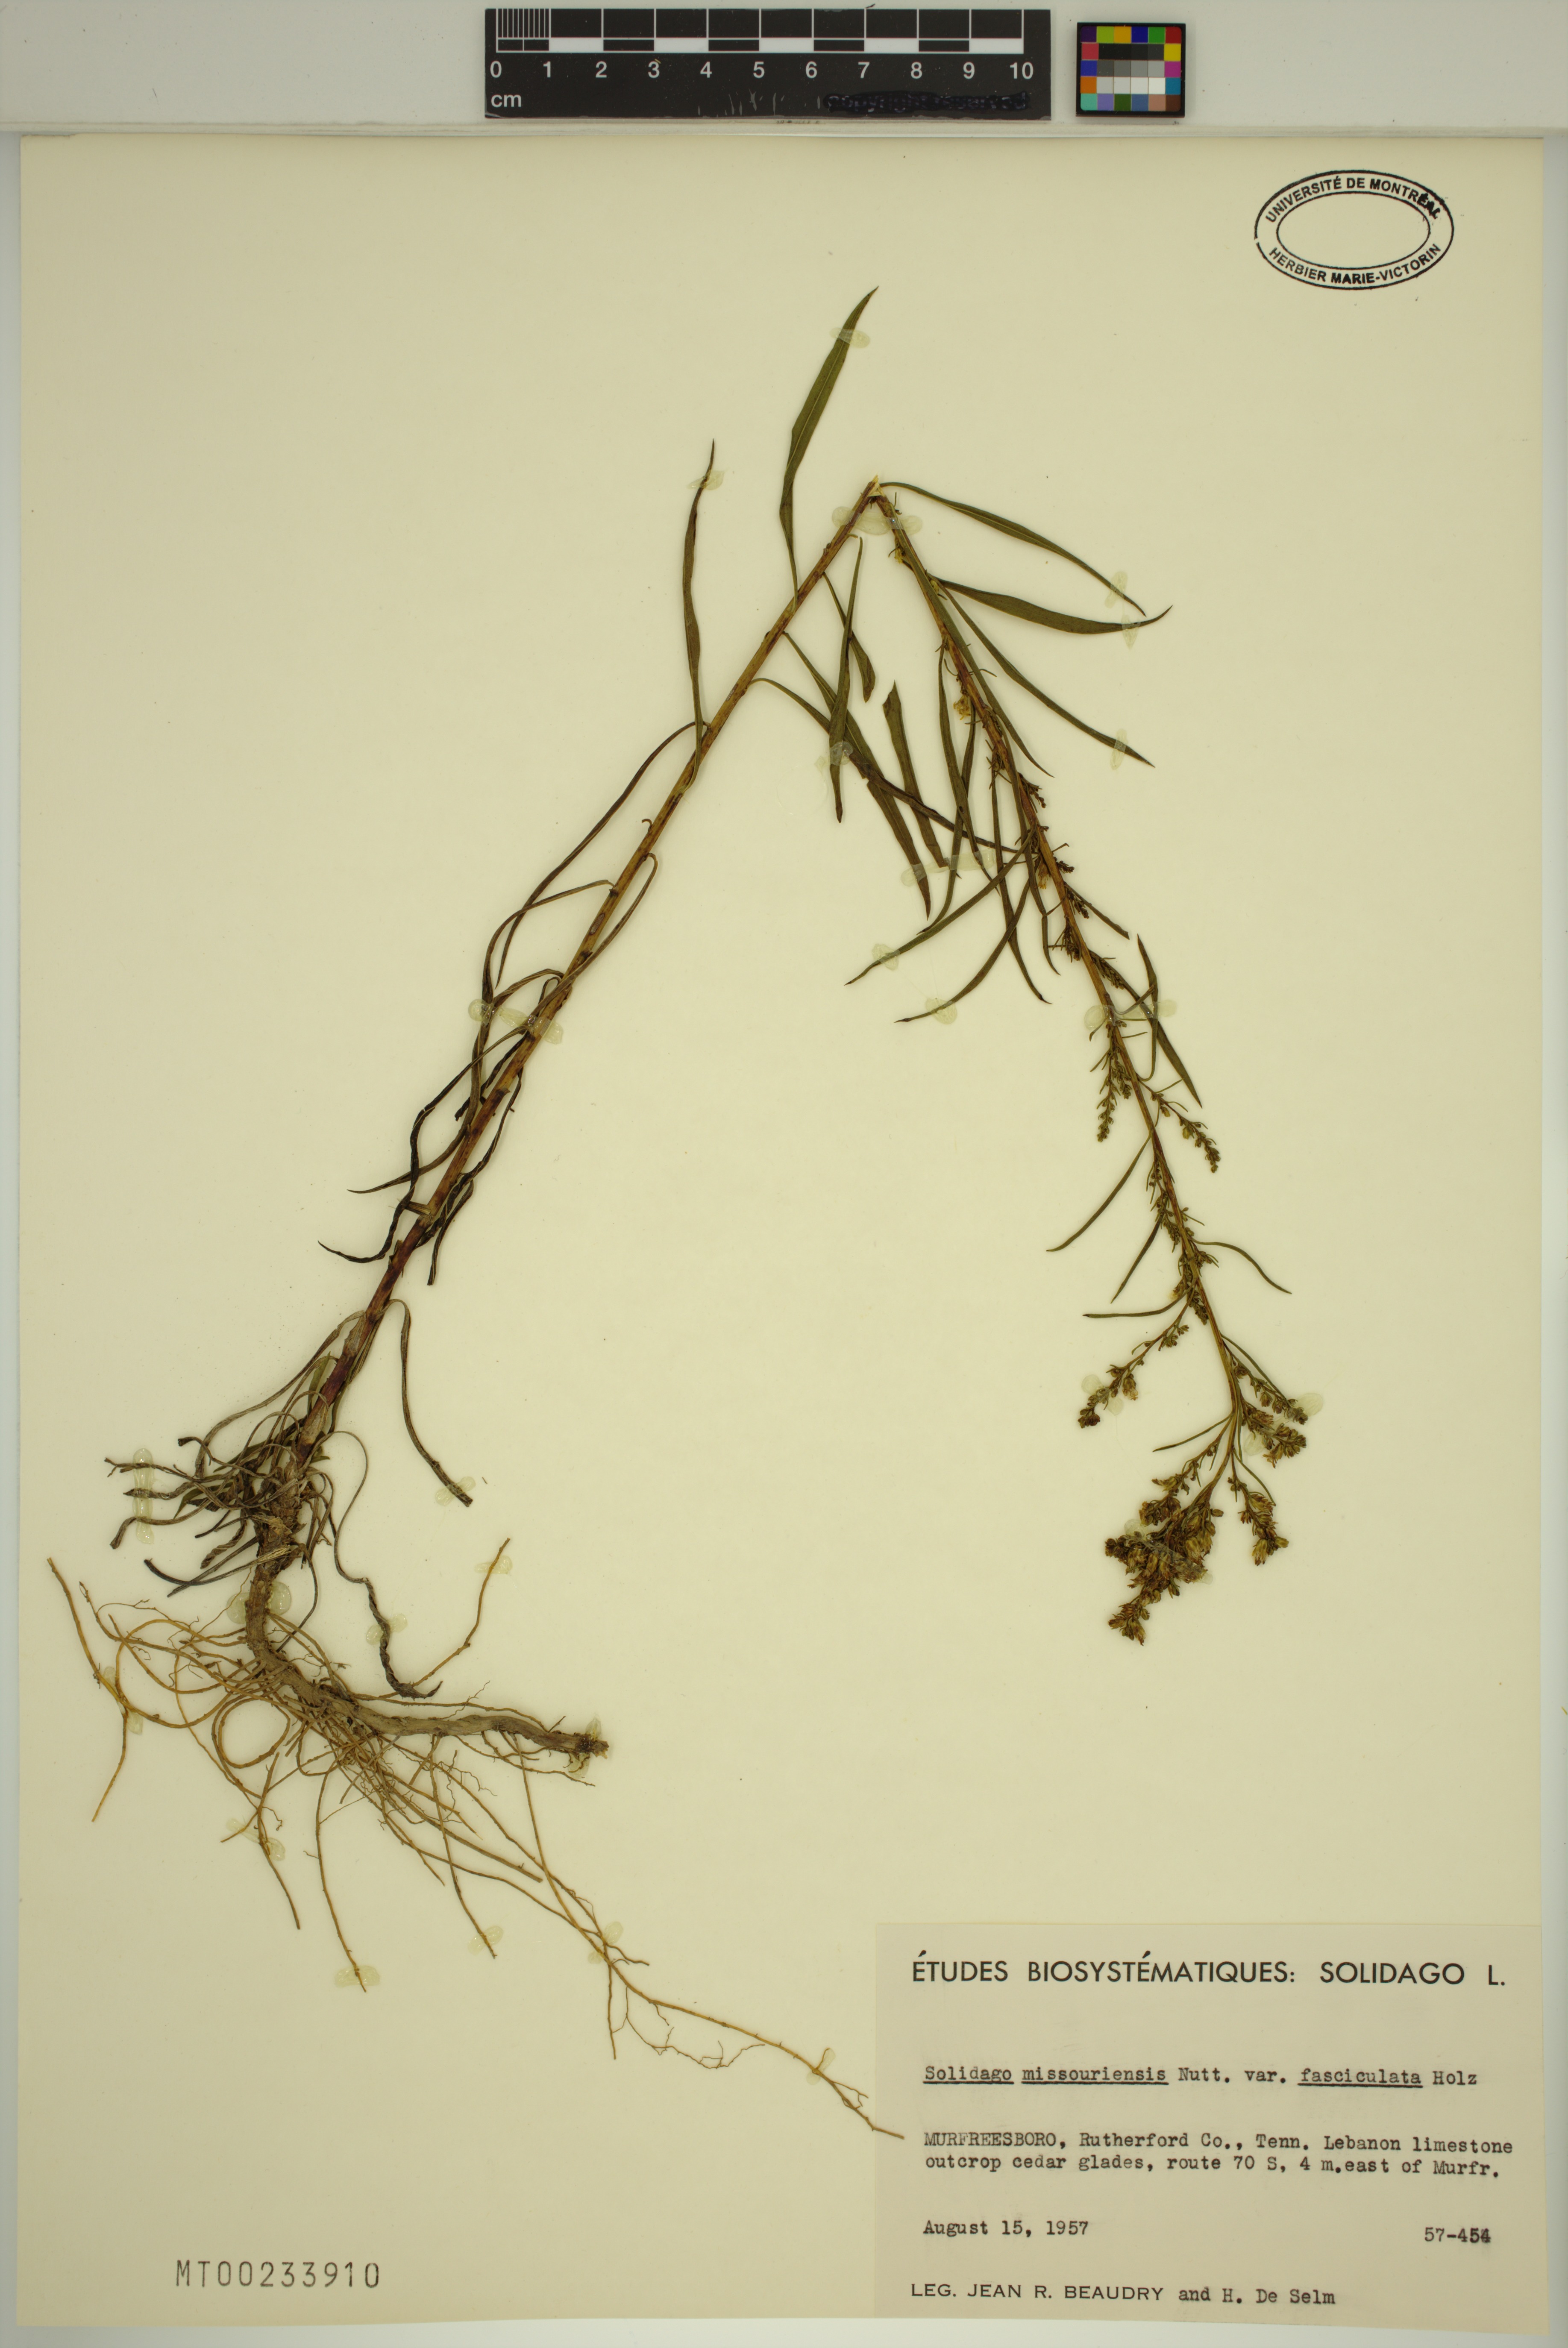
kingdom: Plantae
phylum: Tracheophyta
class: Magnoliopsida
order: Asterales
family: Asteraceae
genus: Solidago
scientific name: Solidago missouriensis
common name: Prairie goldenrod
